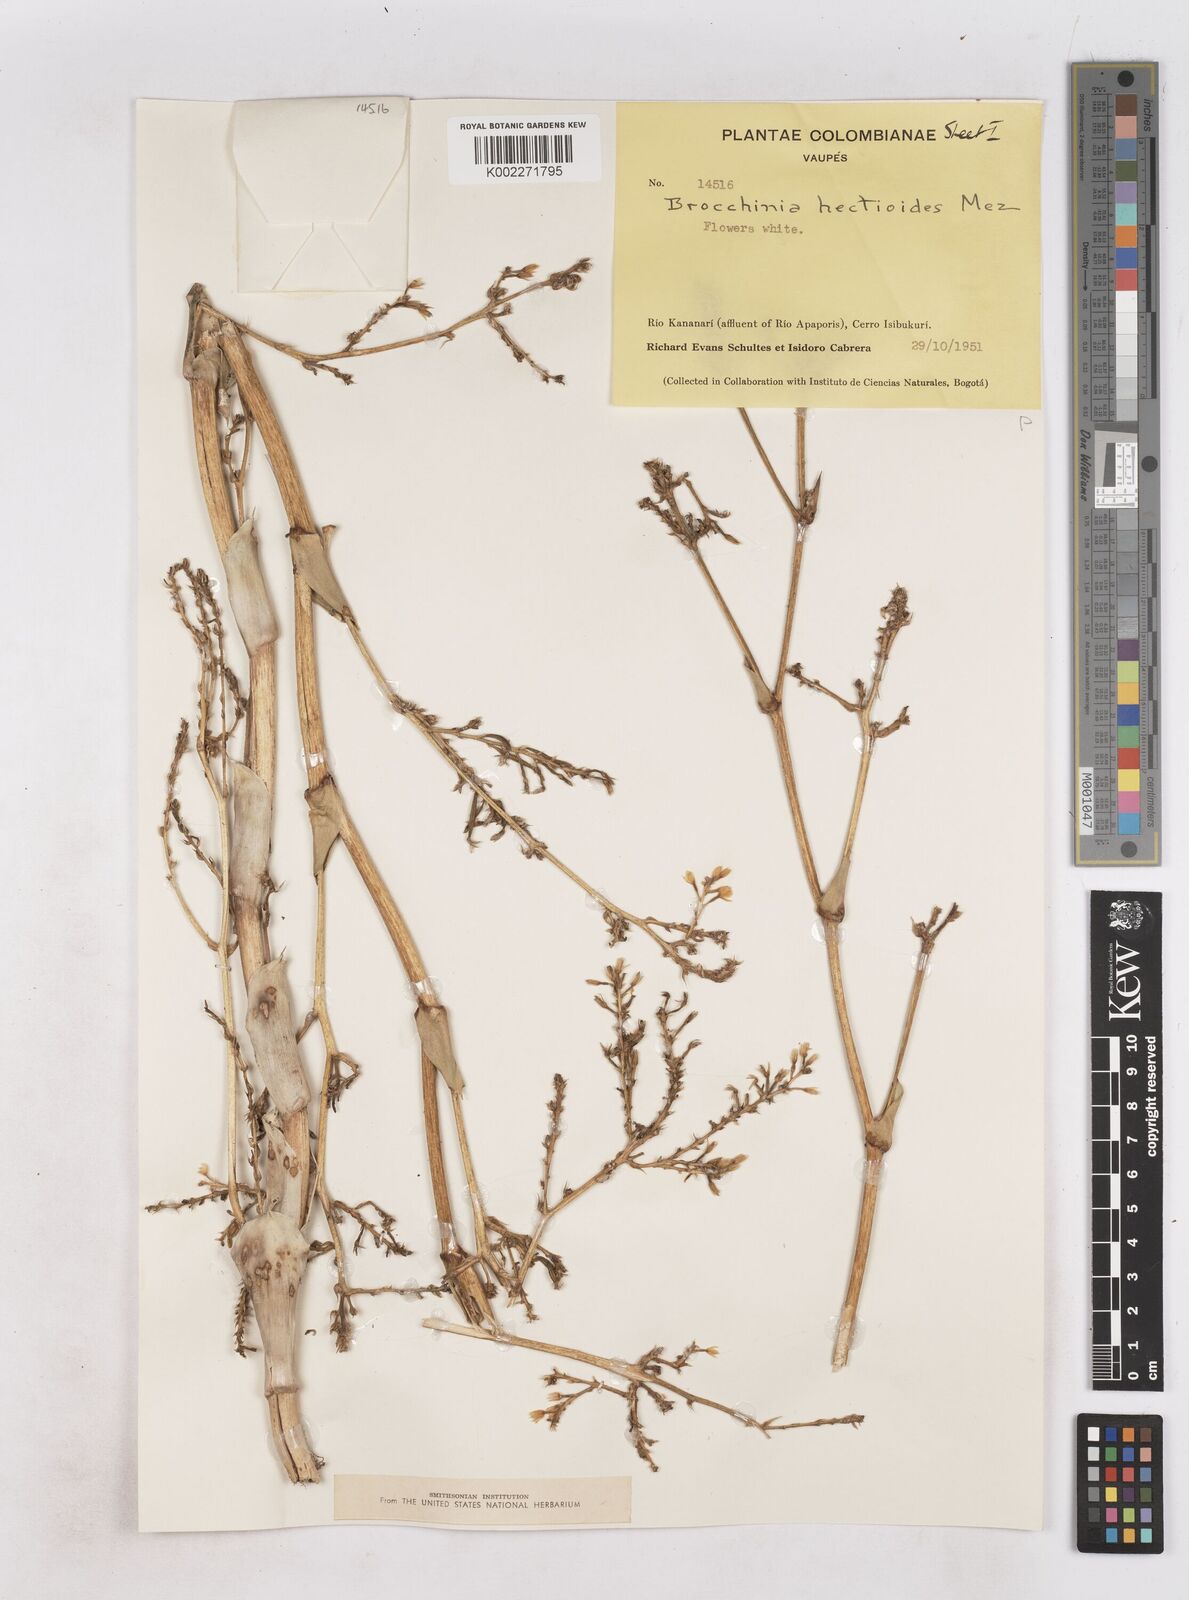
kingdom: Plantae
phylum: Tracheophyta
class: Liliopsida
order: Poales
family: Bromeliaceae
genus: Brocchinia
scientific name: Brocchinia hechtioides
